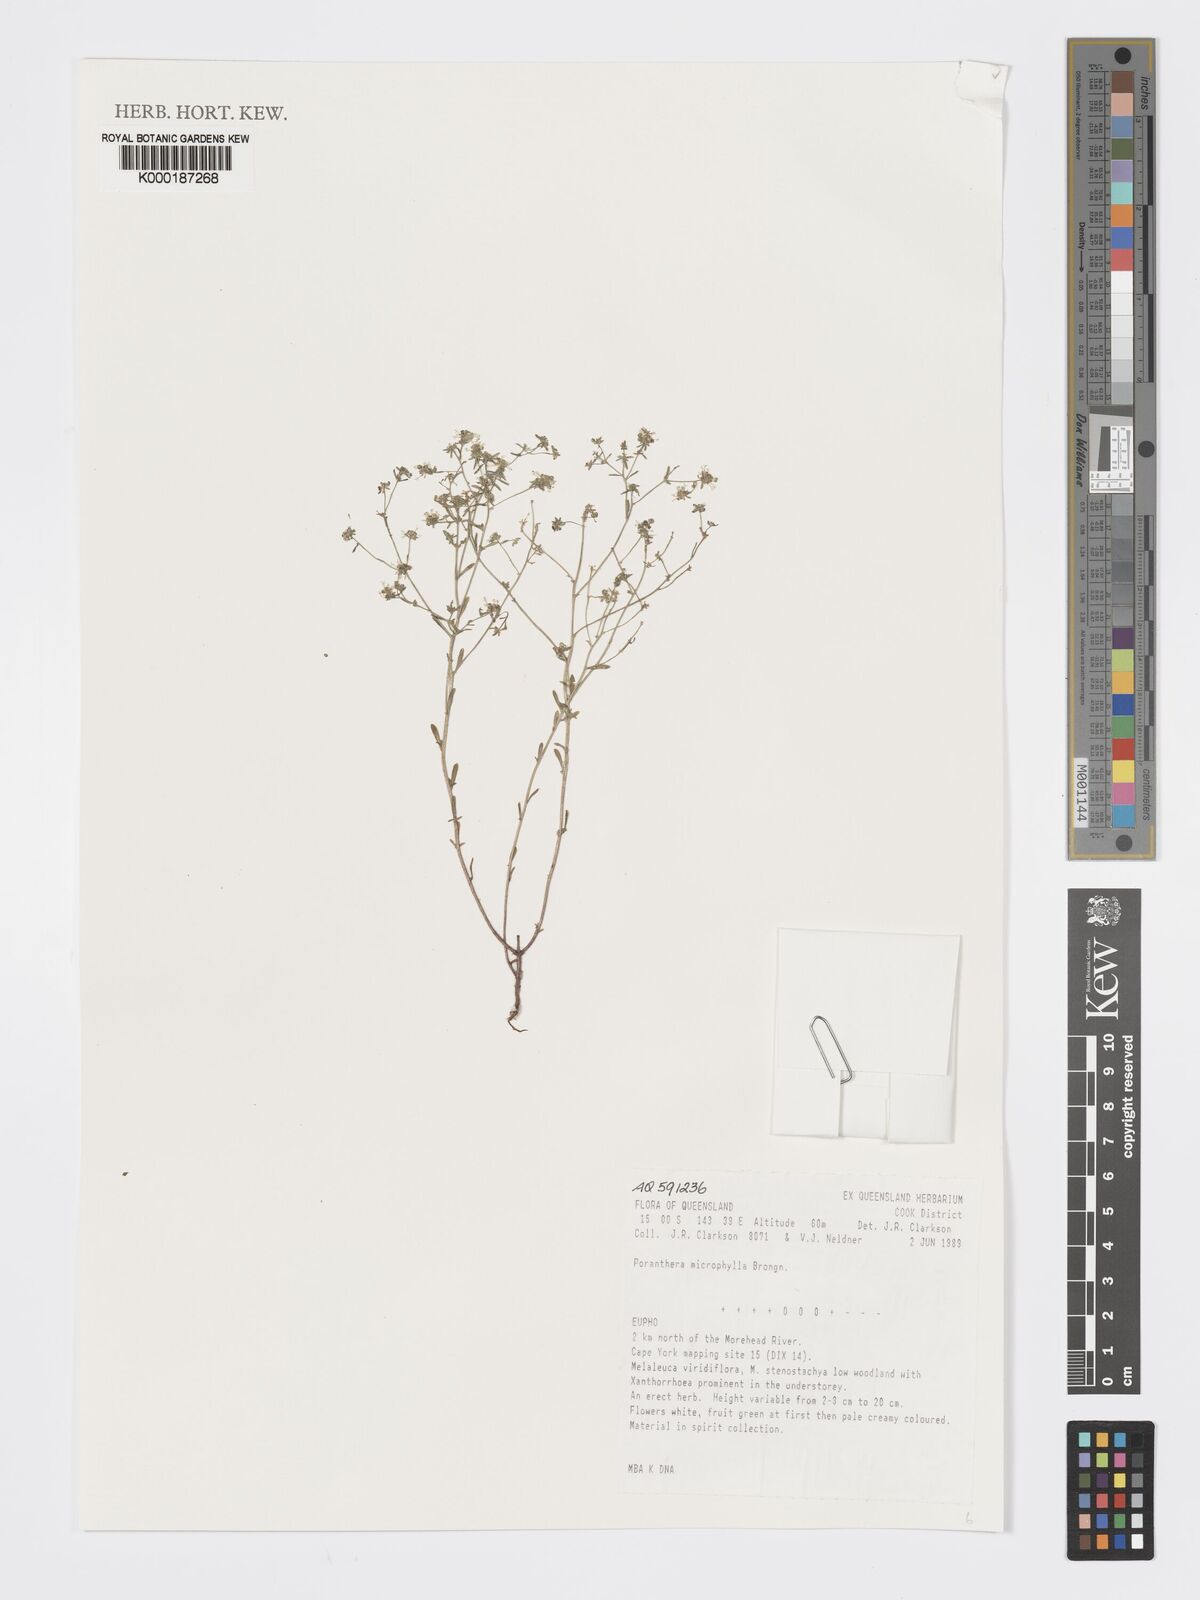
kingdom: Plantae
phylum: Tracheophyta
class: Magnoliopsida
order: Malpighiales
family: Phyllanthaceae
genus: Poranthera
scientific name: Poranthera microphylla
